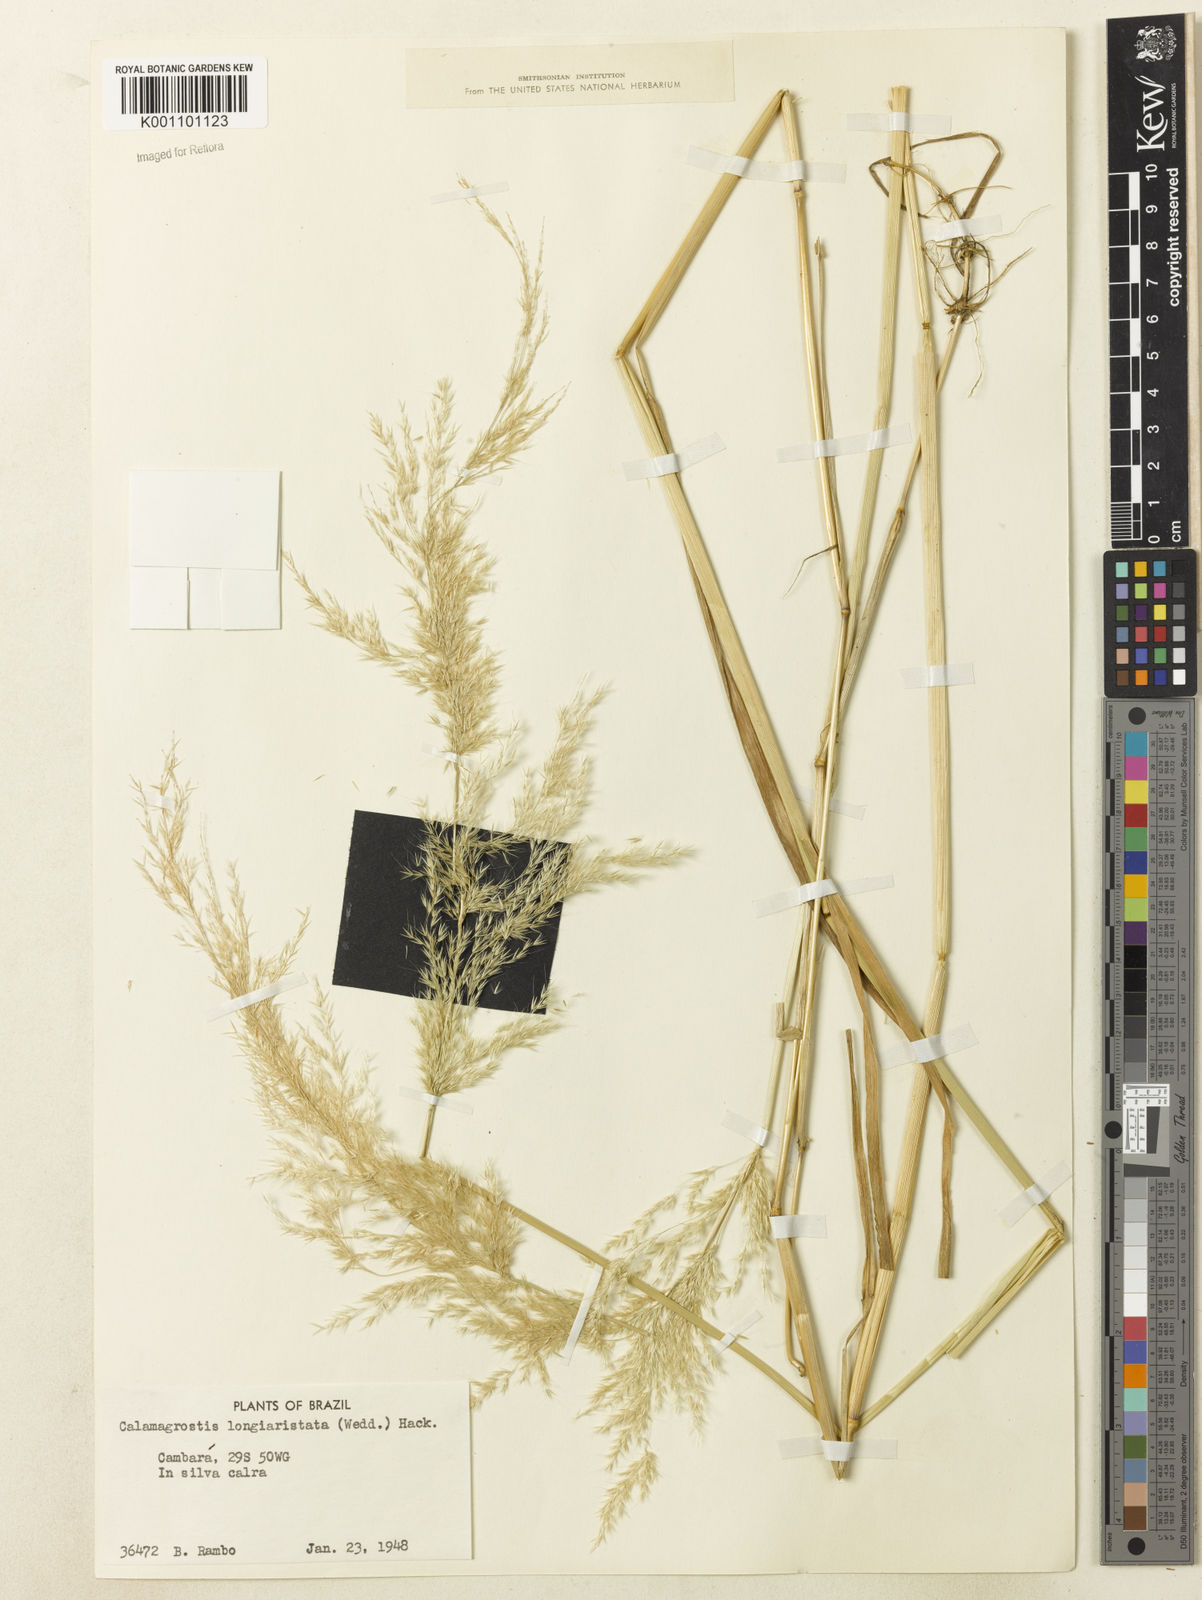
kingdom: Plantae
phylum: Tracheophyta
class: Liliopsida
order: Poales
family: Poaceae
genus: Cinnagrostis
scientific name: Cinnagrostis rupestris
